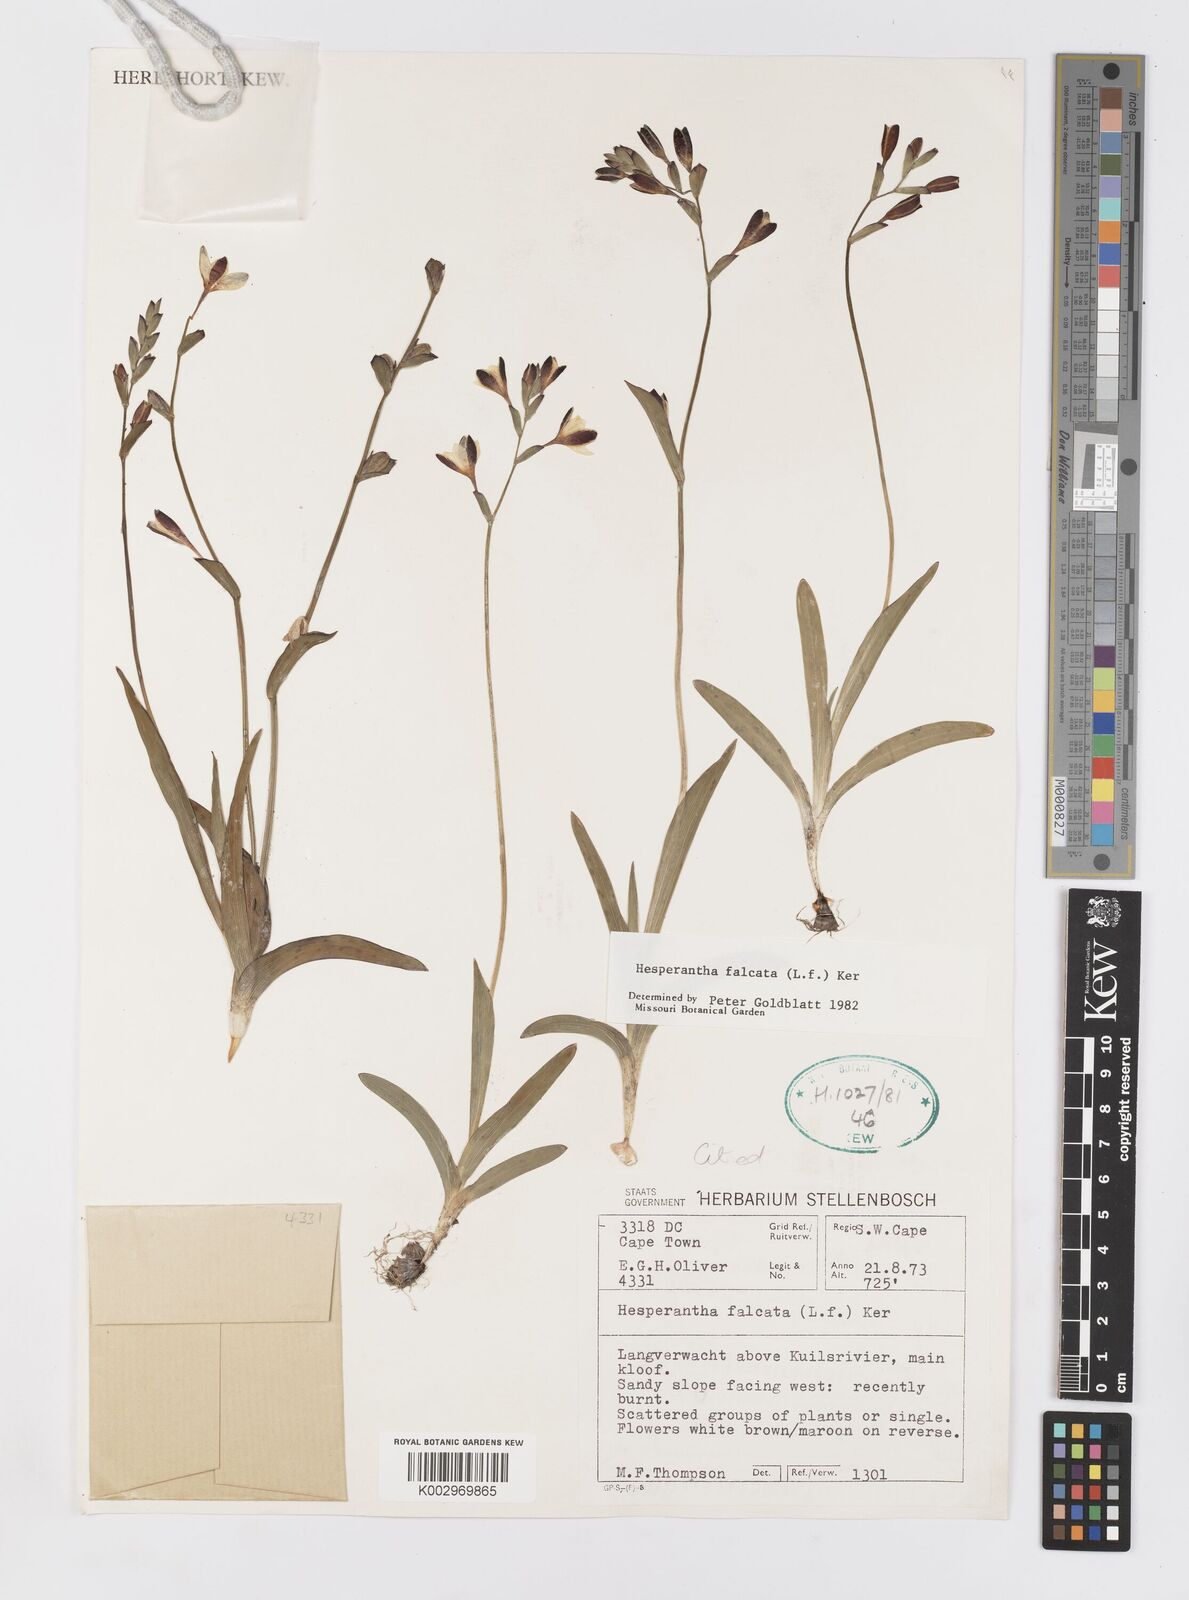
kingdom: Plantae
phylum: Tracheophyta
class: Liliopsida
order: Asparagales
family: Iridaceae
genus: Hesperantha
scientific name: Hesperantha falcata
